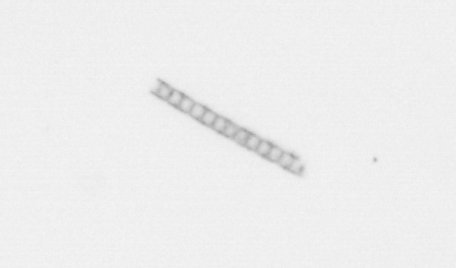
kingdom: Chromista
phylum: Ochrophyta
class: Bacillariophyceae
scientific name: Bacillariophyceae
